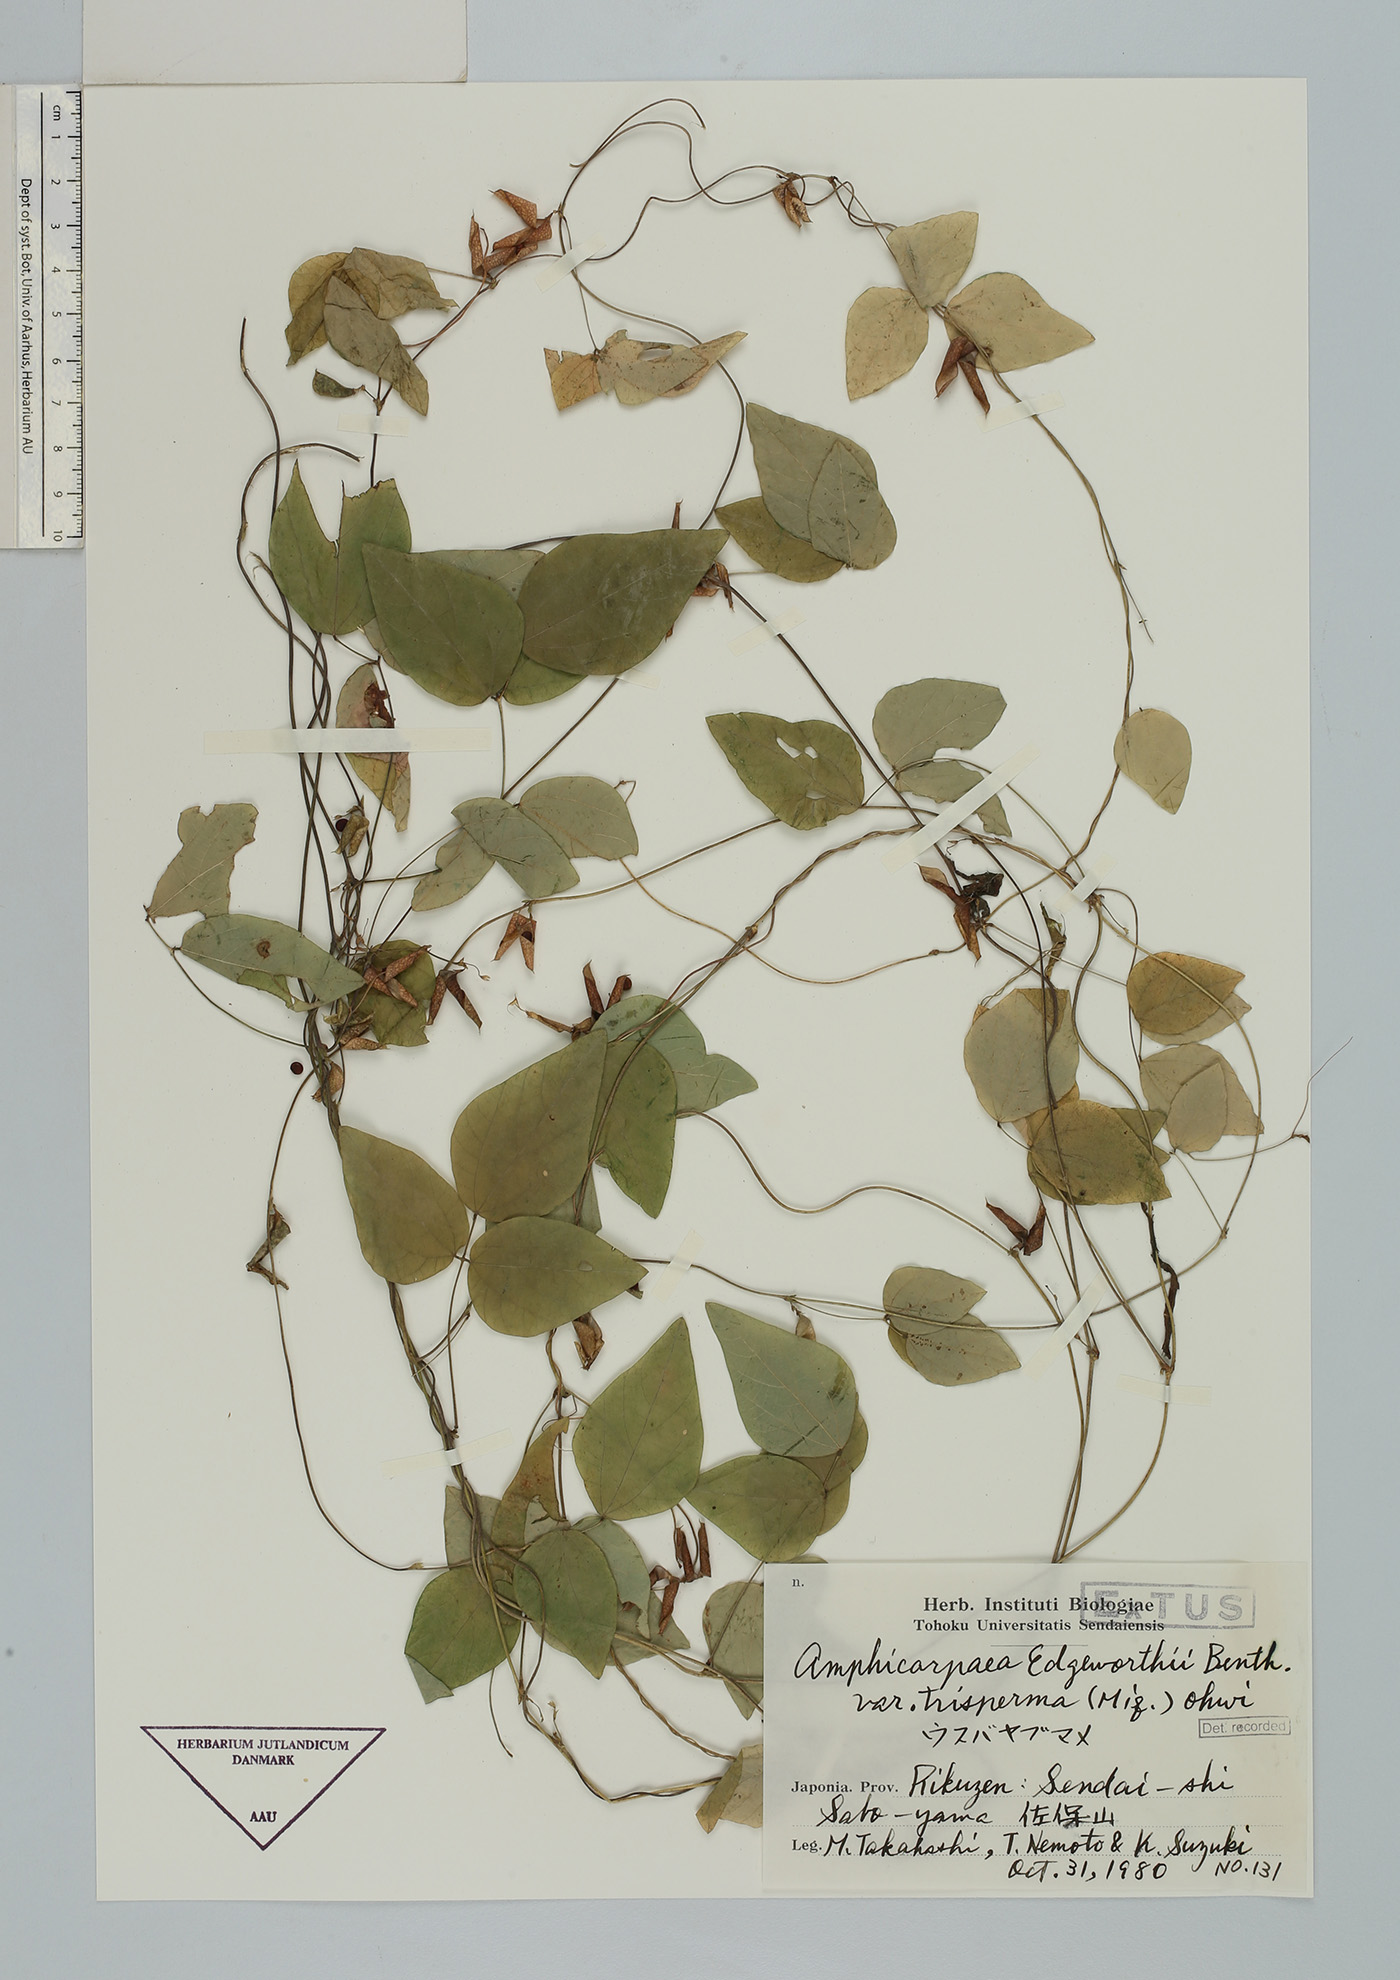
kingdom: Plantae
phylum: Tracheophyta
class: Magnoliopsida
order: Fabales
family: Fabaceae
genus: Amphicarpaea
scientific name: Amphicarpaea edgeworthii
